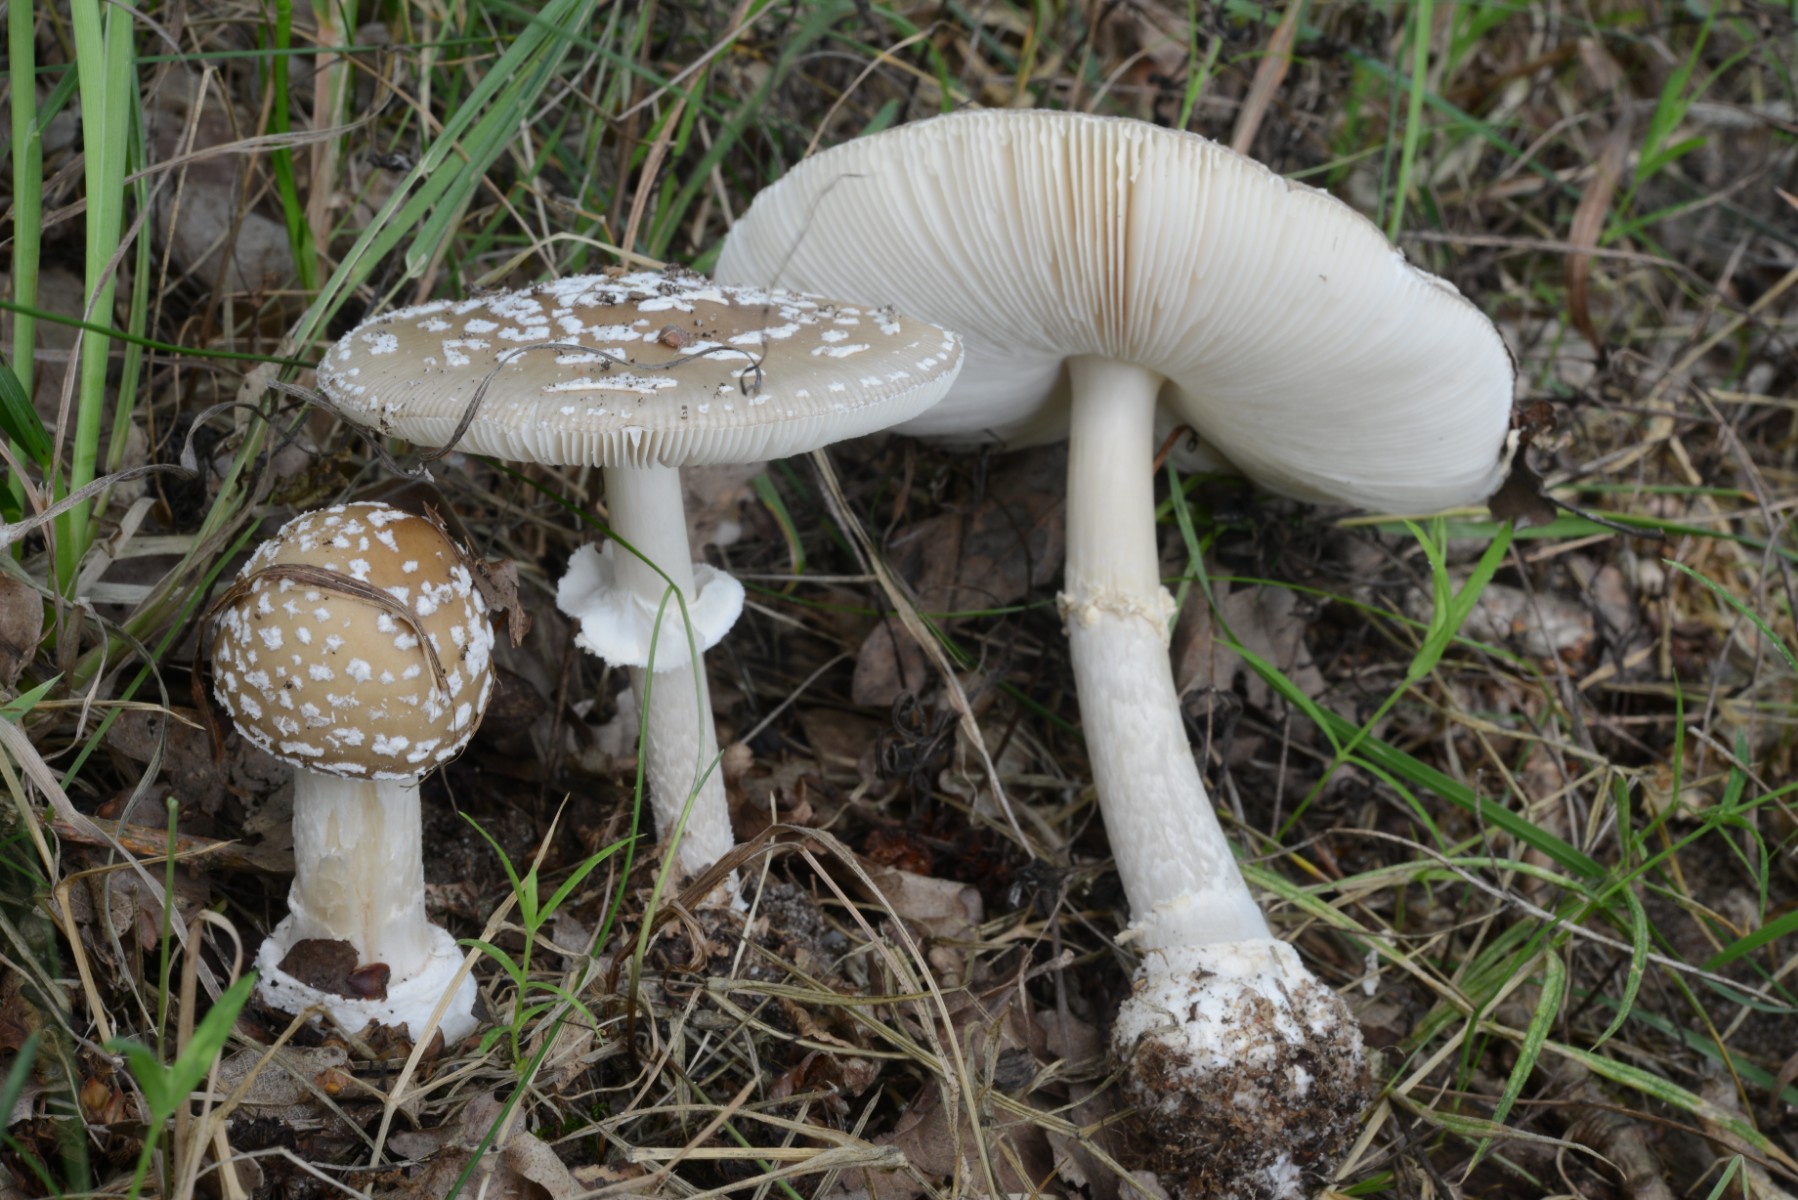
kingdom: Fungi
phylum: Basidiomycota
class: Agaricomycetes
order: Agaricales
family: Amanitaceae
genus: Amanita
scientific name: Amanita pantherina
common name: panter-fluesvamp
